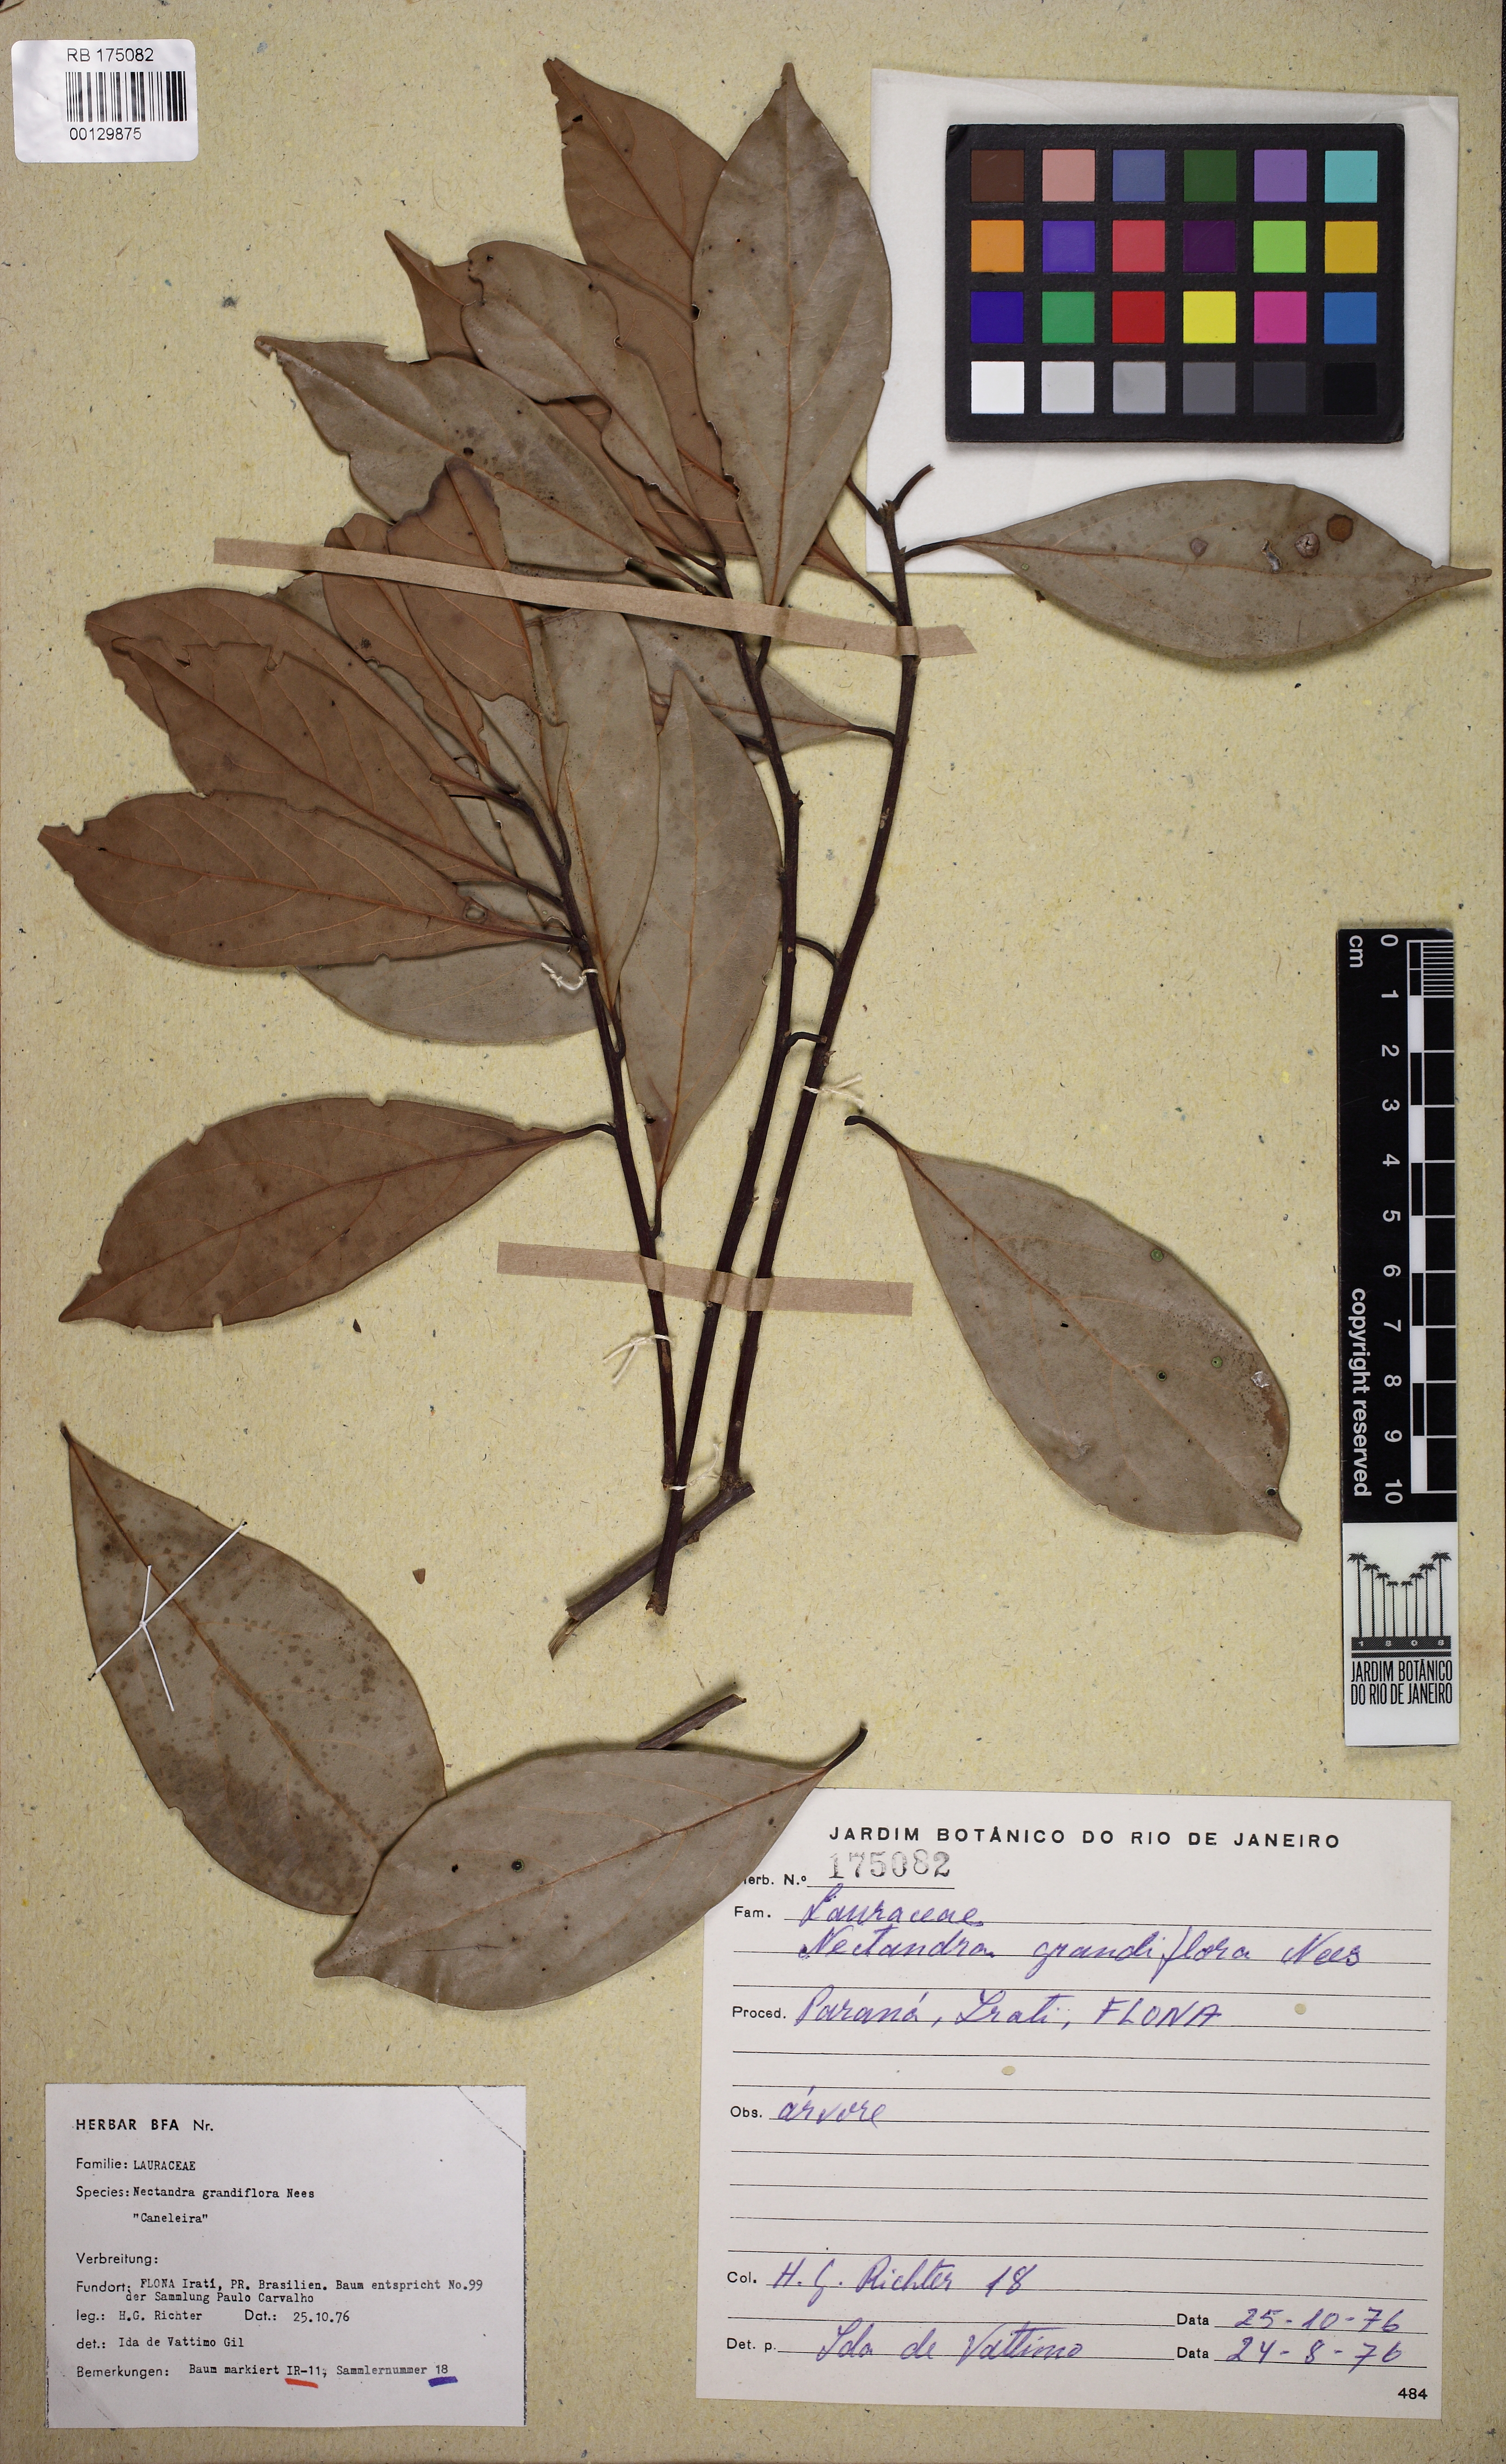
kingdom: Plantae
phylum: Tracheophyta
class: Magnoliopsida
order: Laurales
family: Lauraceae
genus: Nectandra
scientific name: Nectandra grandiflora
